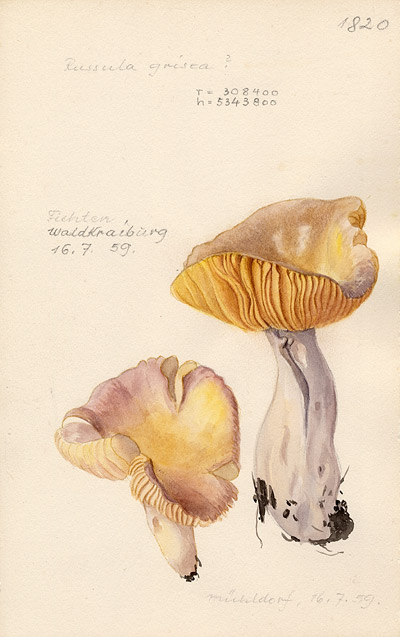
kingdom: Fungi
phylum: Basidiomycota
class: Agaricomycetes
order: Russulales
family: Russulaceae
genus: Russula
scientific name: Russula
